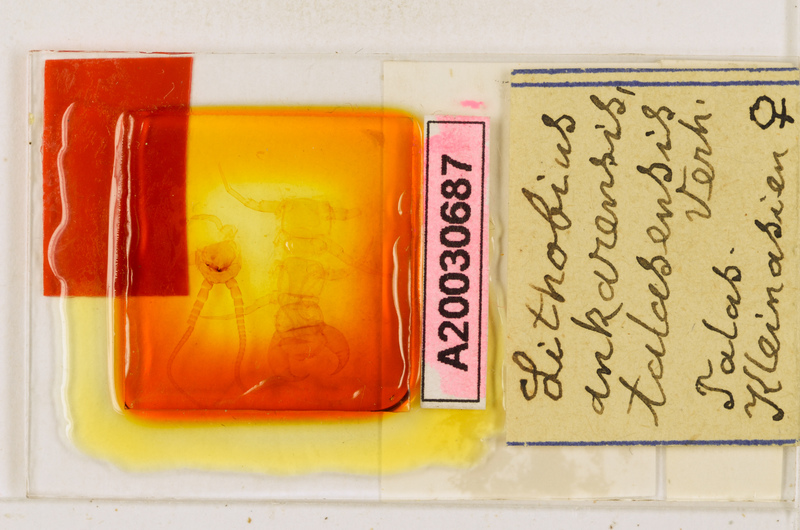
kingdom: Animalia
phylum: Arthropoda
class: Chilopoda
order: Lithobiomorpha
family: Lithobiidae
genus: Lithobius
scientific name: Lithobius viriatus
